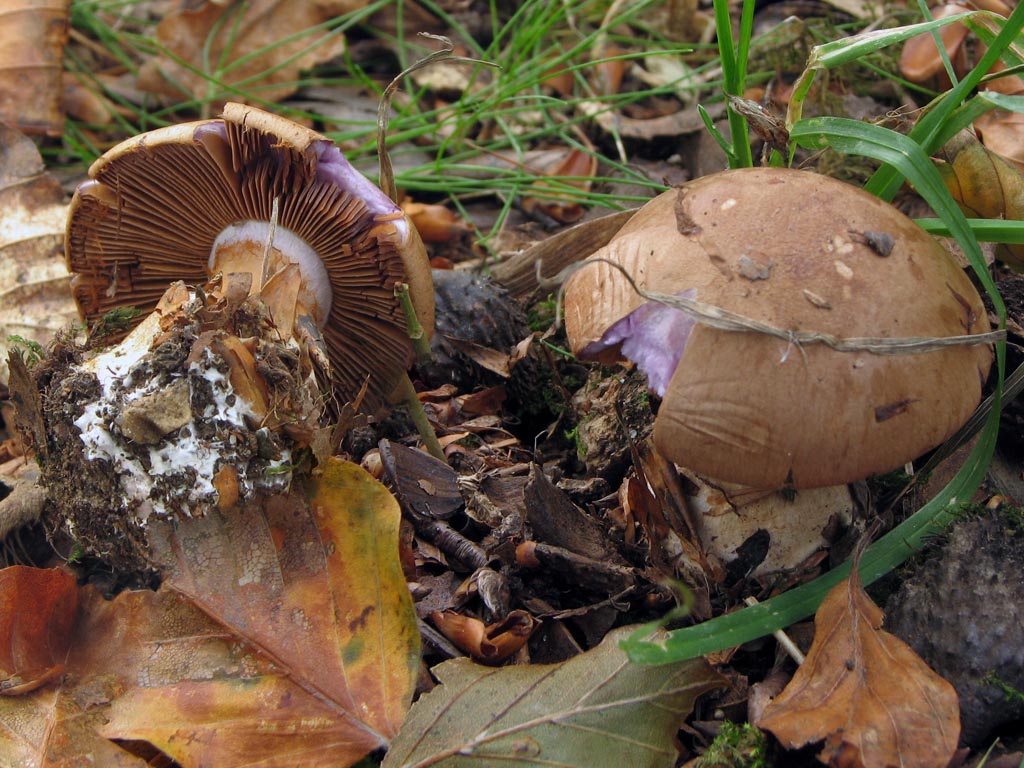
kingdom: Fungi
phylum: Basidiomycota
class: Agaricomycetes
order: Agaricales
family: Cortinariaceae
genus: Cortinarius
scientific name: Cortinarius largus
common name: violetrandet slørhat
